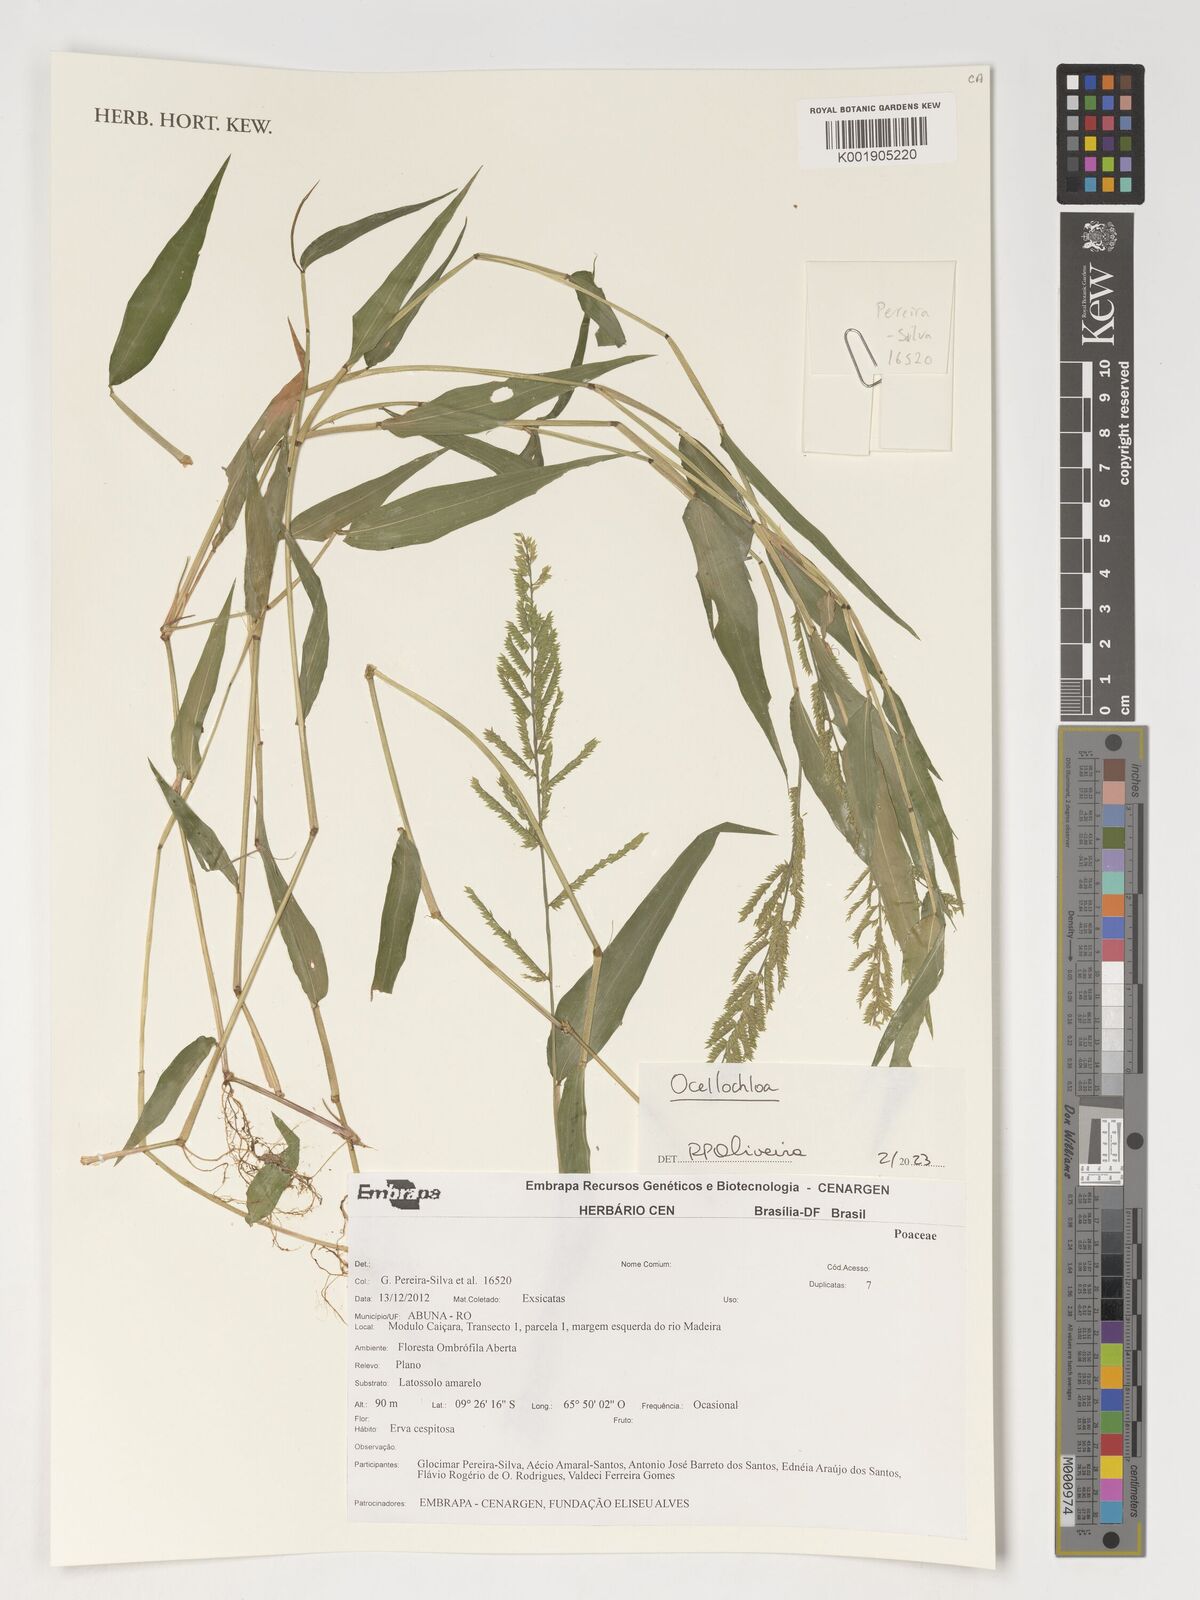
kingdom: Plantae
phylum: Tracheophyta
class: Liliopsida
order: Poales
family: Poaceae
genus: Ocellochloa
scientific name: Ocellochloa
